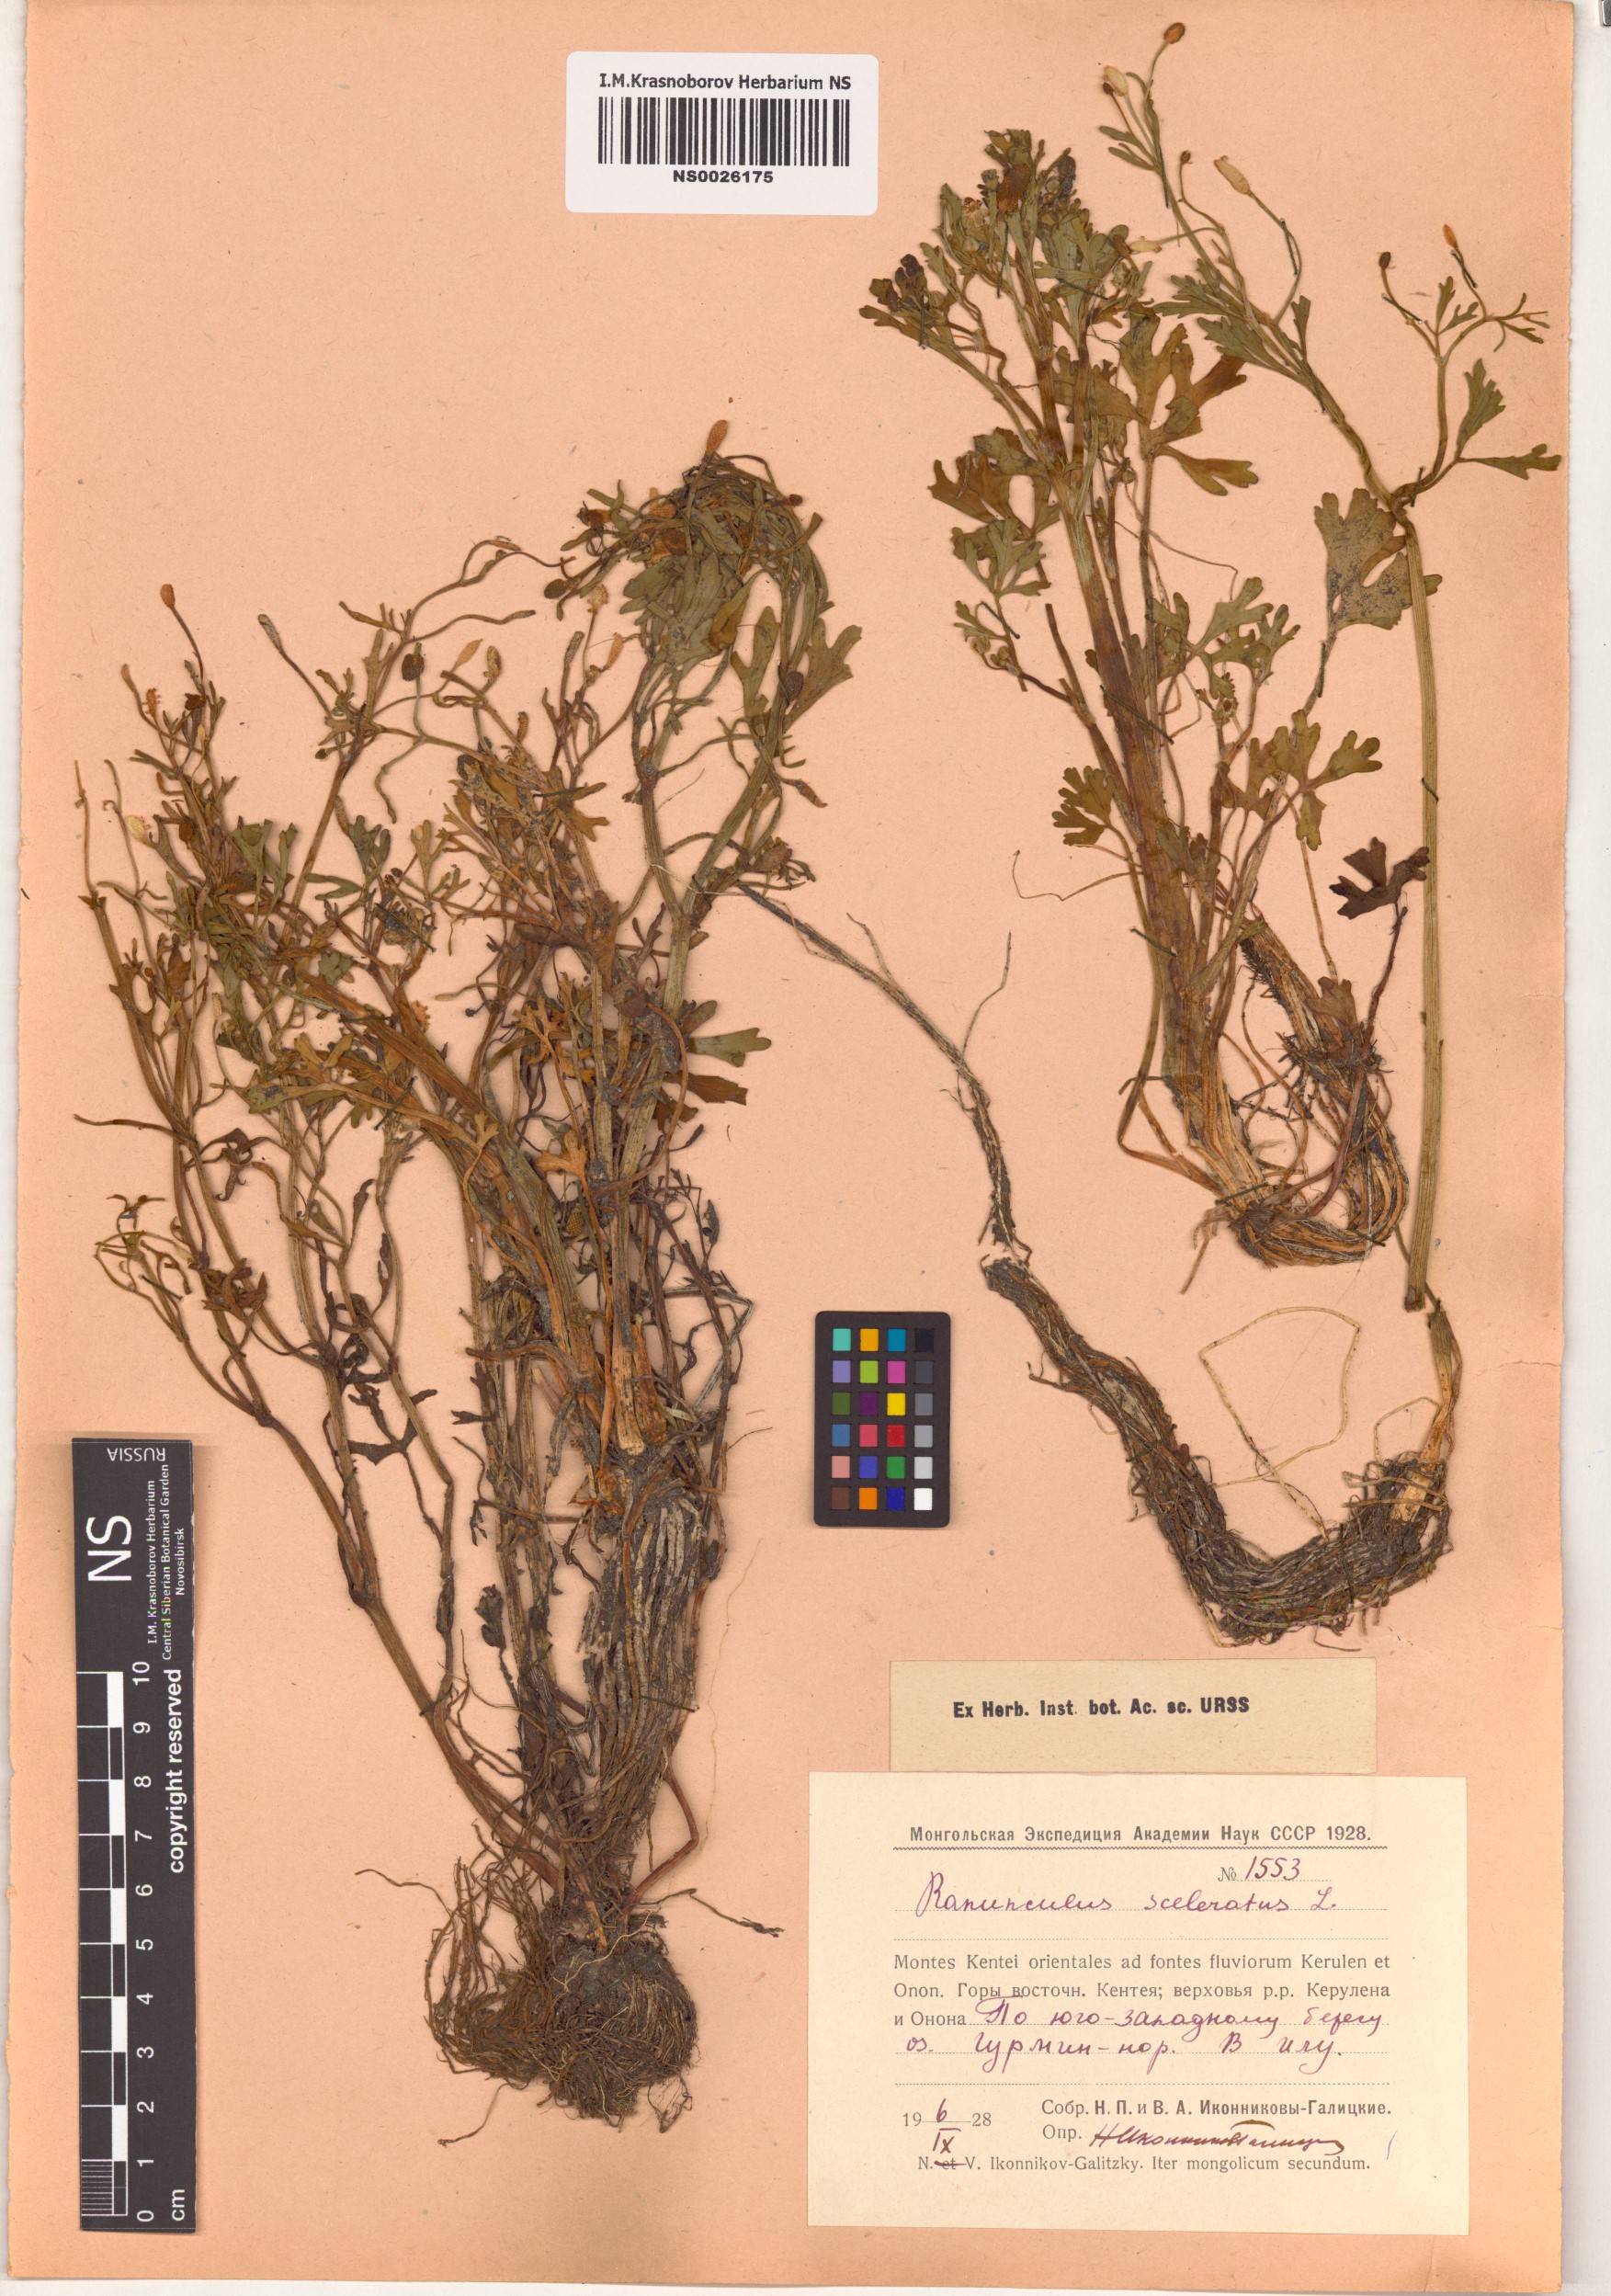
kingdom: Plantae
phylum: Tracheophyta
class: Magnoliopsida
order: Ranunculales
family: Ranunculaceae
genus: Ranunculus
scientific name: Ranunculus sceleratus
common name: Celery-leaved buttercup
